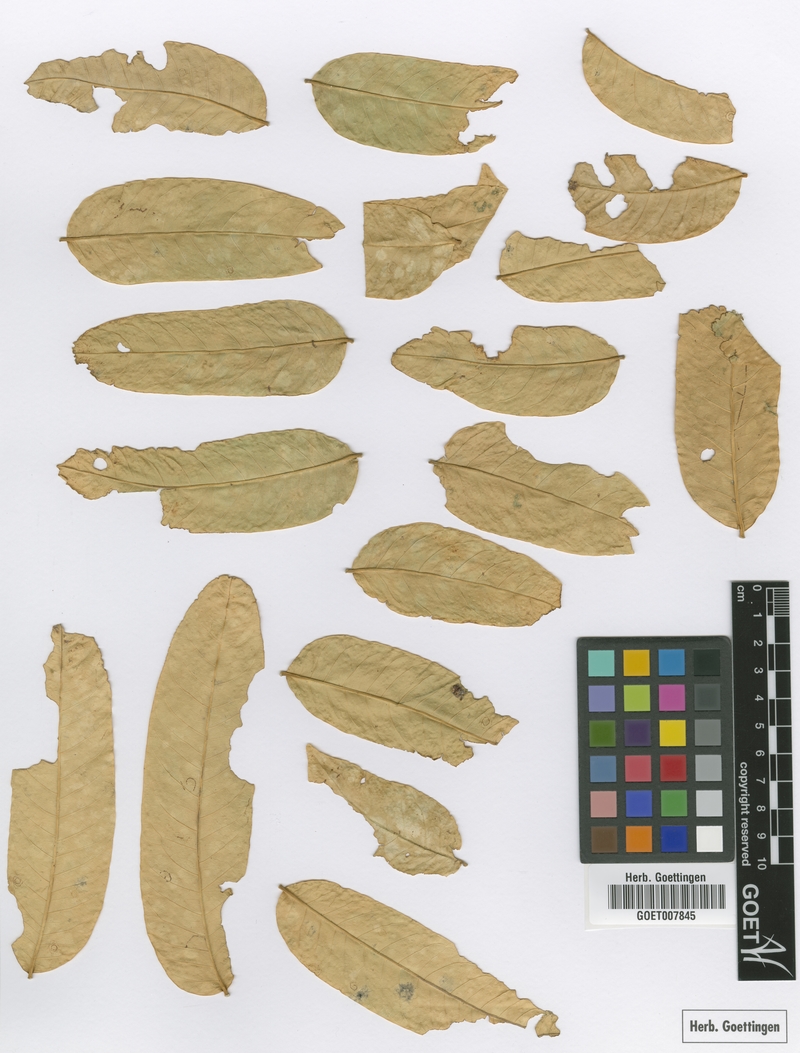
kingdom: Plantae
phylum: Tracheophyta
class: Magnoliopsida
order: Sapindales
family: Meliaceae
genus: Ruagea
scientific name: Ruagea insignis
